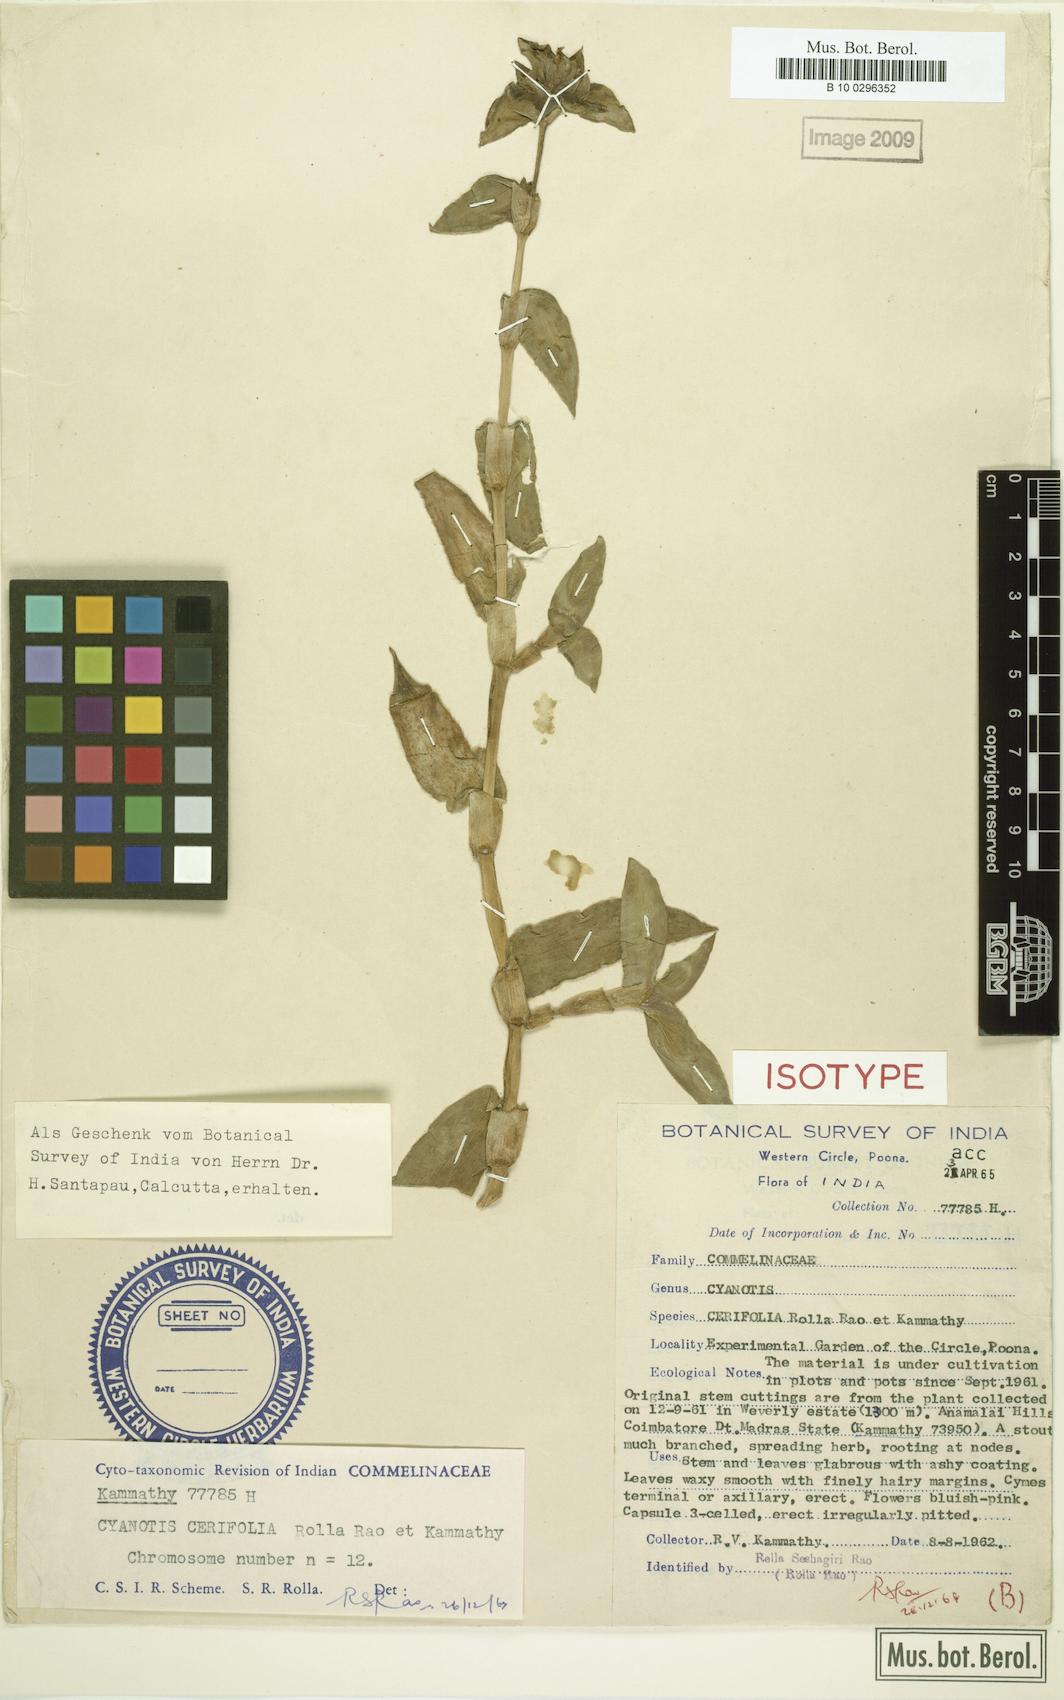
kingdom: Plantae
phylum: Tracheophyta
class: Liliopsida
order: Commelinales
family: Commelinaceae
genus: Cyanotis
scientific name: Cyanotis villosa
